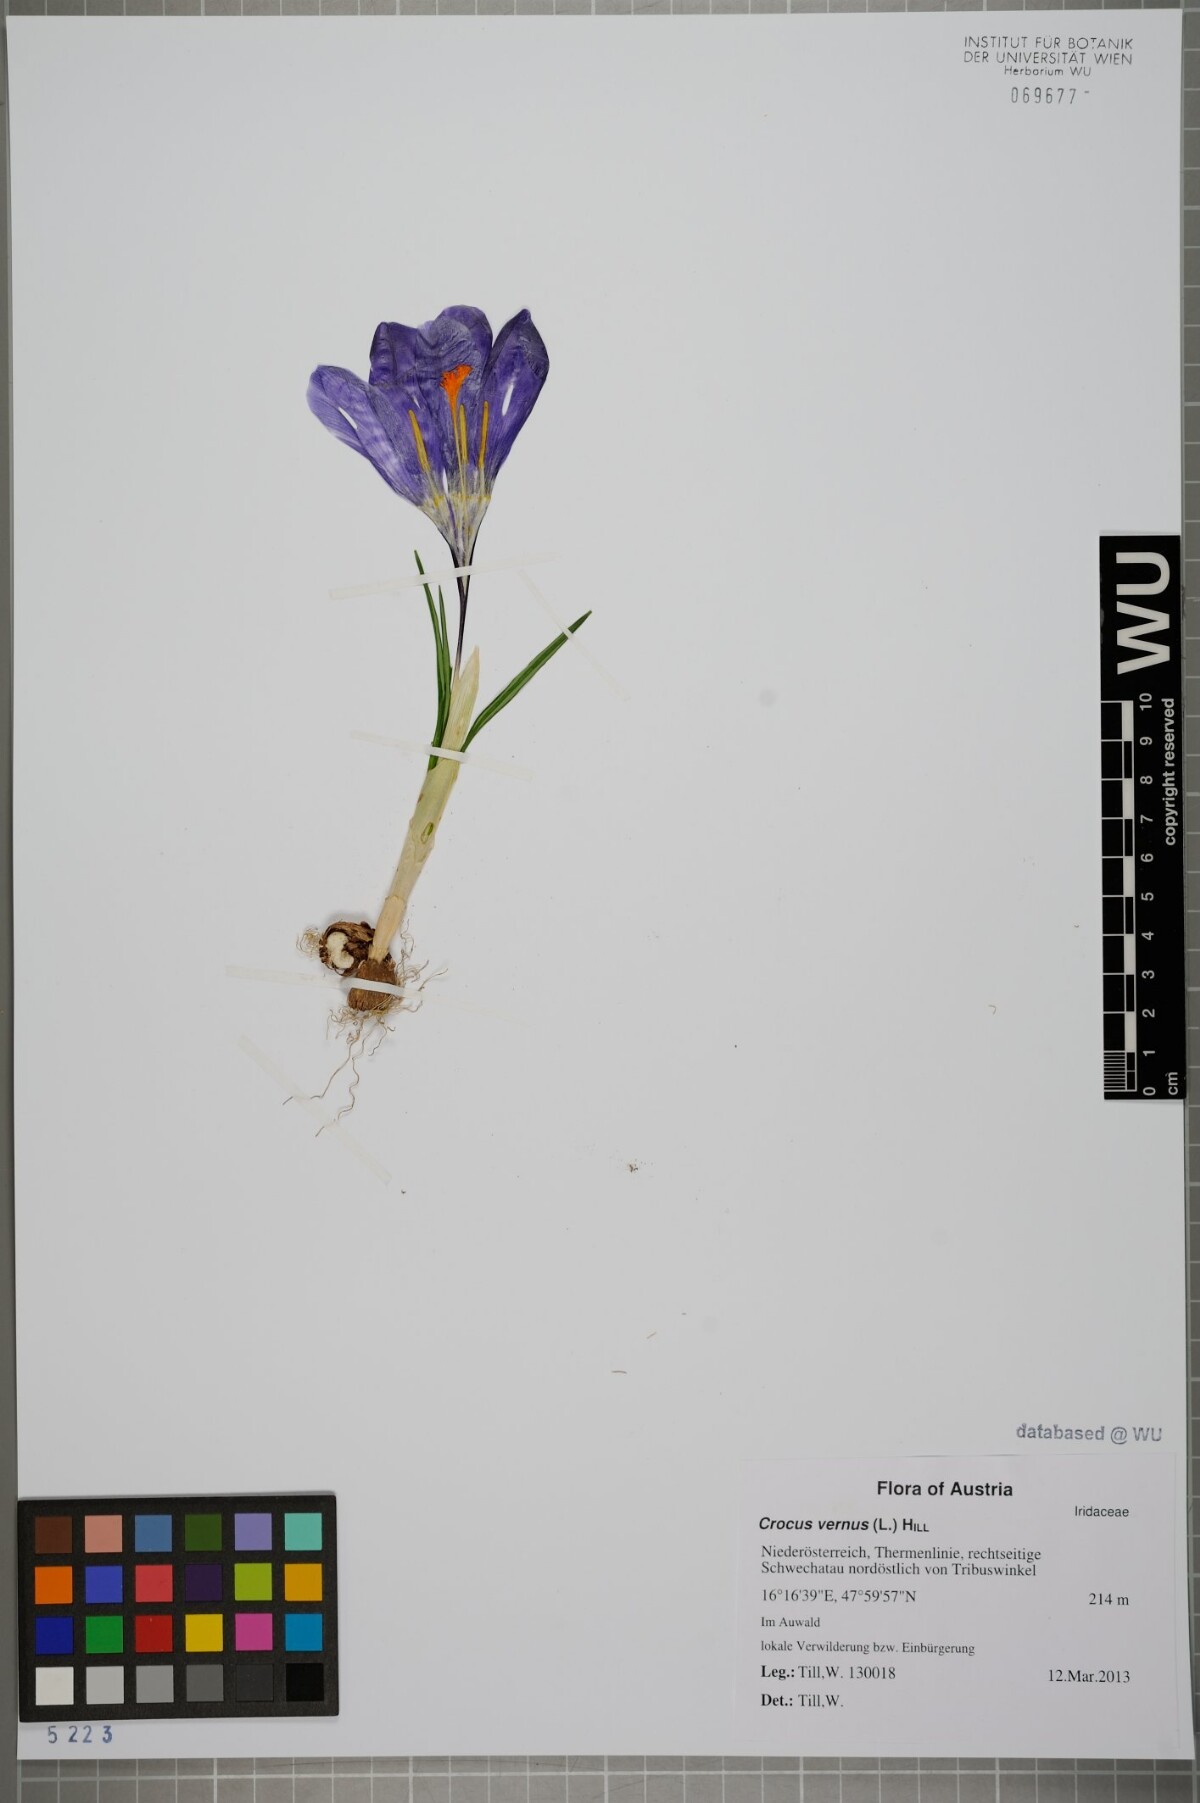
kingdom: Plantae
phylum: Tracheophyta
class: Liliopsida
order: Asparagales
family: Iridaceae
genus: Crocus
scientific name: Crocus neglectus
